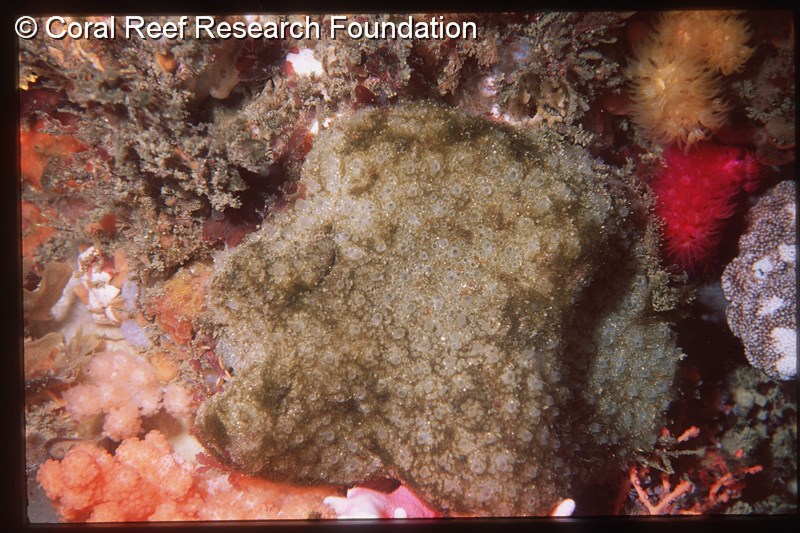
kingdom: Animalia
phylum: Chordata
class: Ascidiacea
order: Aplousobranchia
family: Polyclinidae
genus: Polyclinum
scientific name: Polyclinum isipingense
